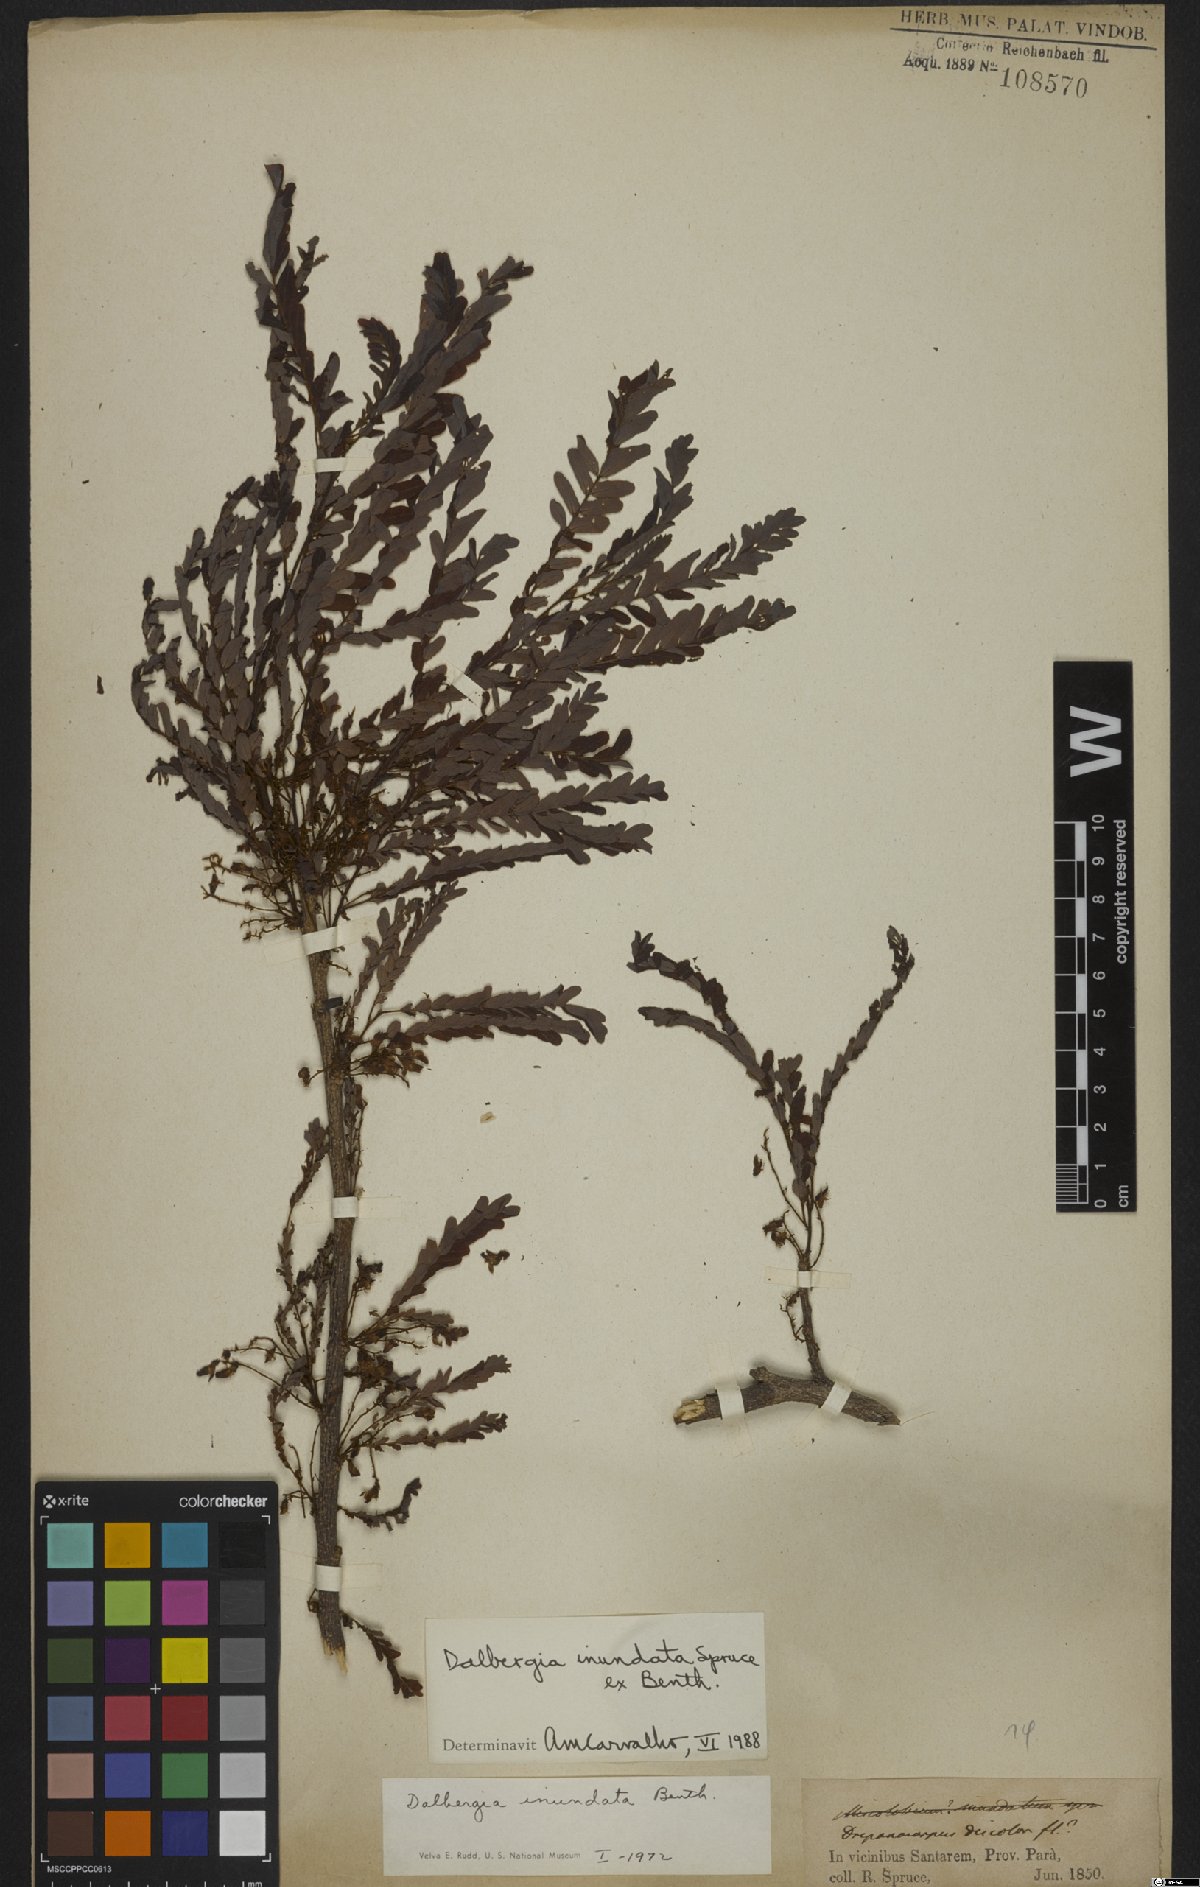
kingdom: Plantae
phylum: Tracheophyta
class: Magnoliopsida
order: Fabales
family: Fabaceae
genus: Dalbergia
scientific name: Dalbergia inundata
